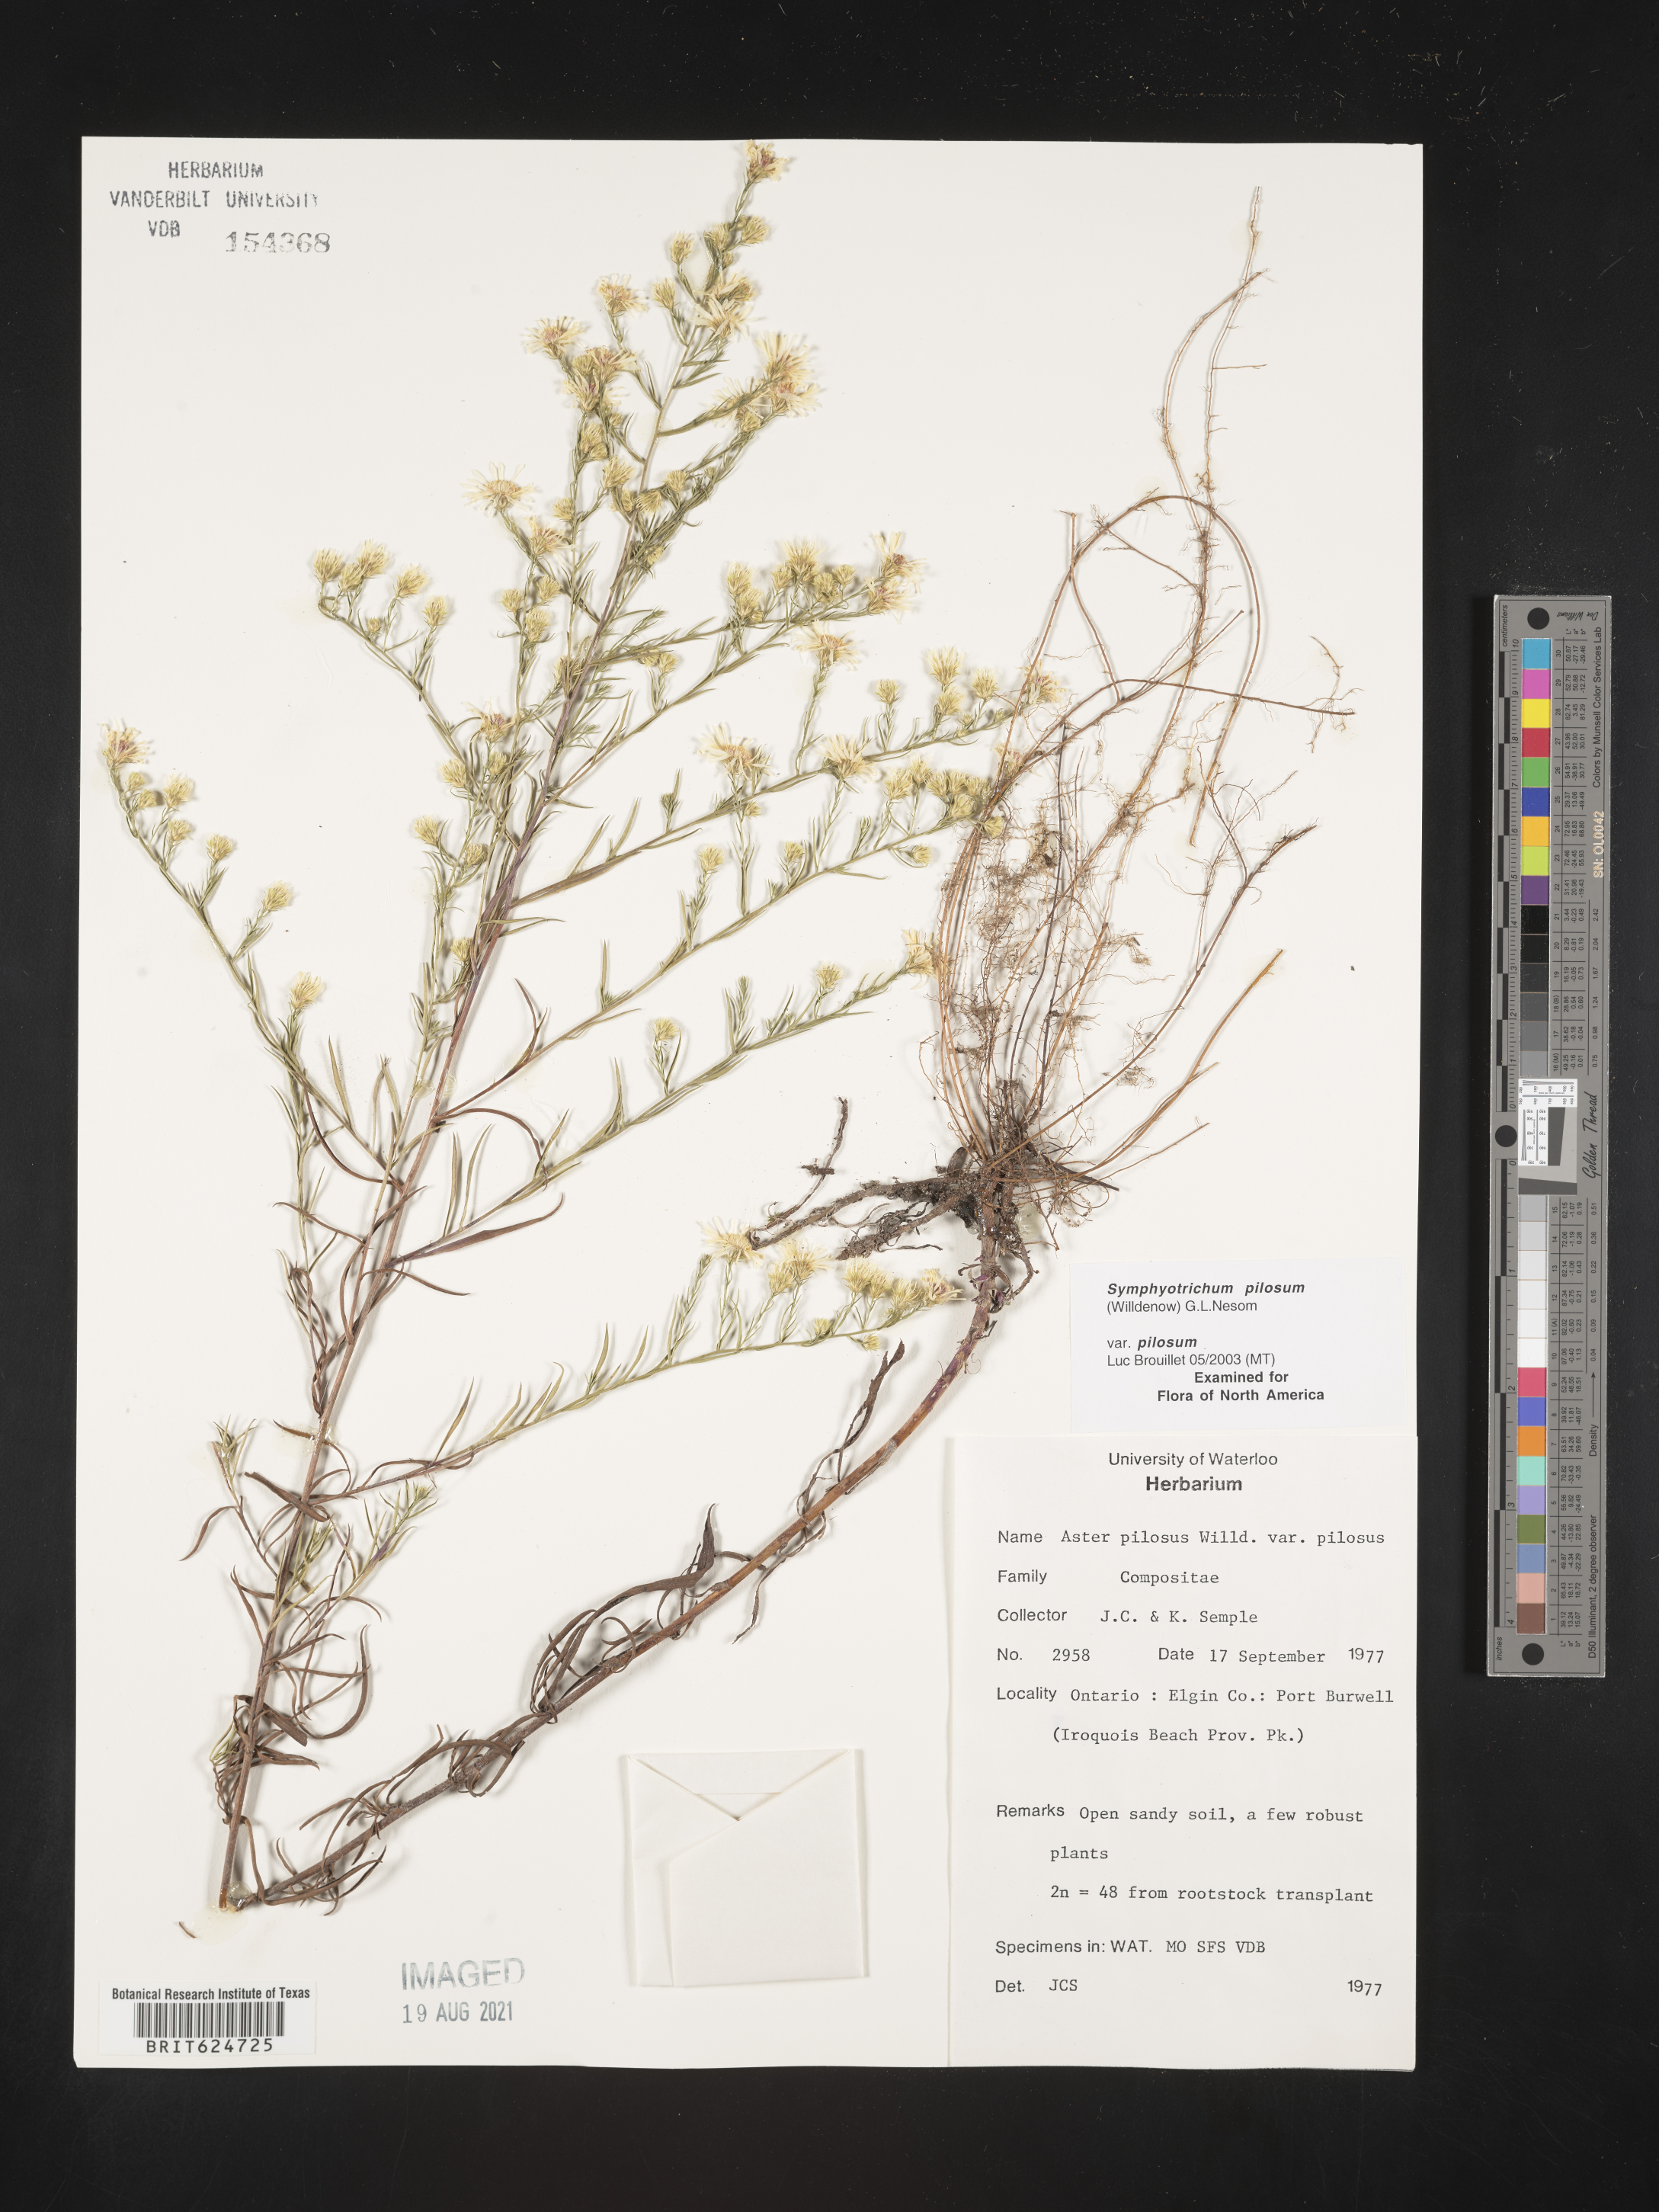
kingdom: Plantae
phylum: Tracheophyta
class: Magnoliopsida
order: Asterales
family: Asteraceae
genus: Symphyotrichum
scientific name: Symphyotrichum pilosum
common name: Awl aster
